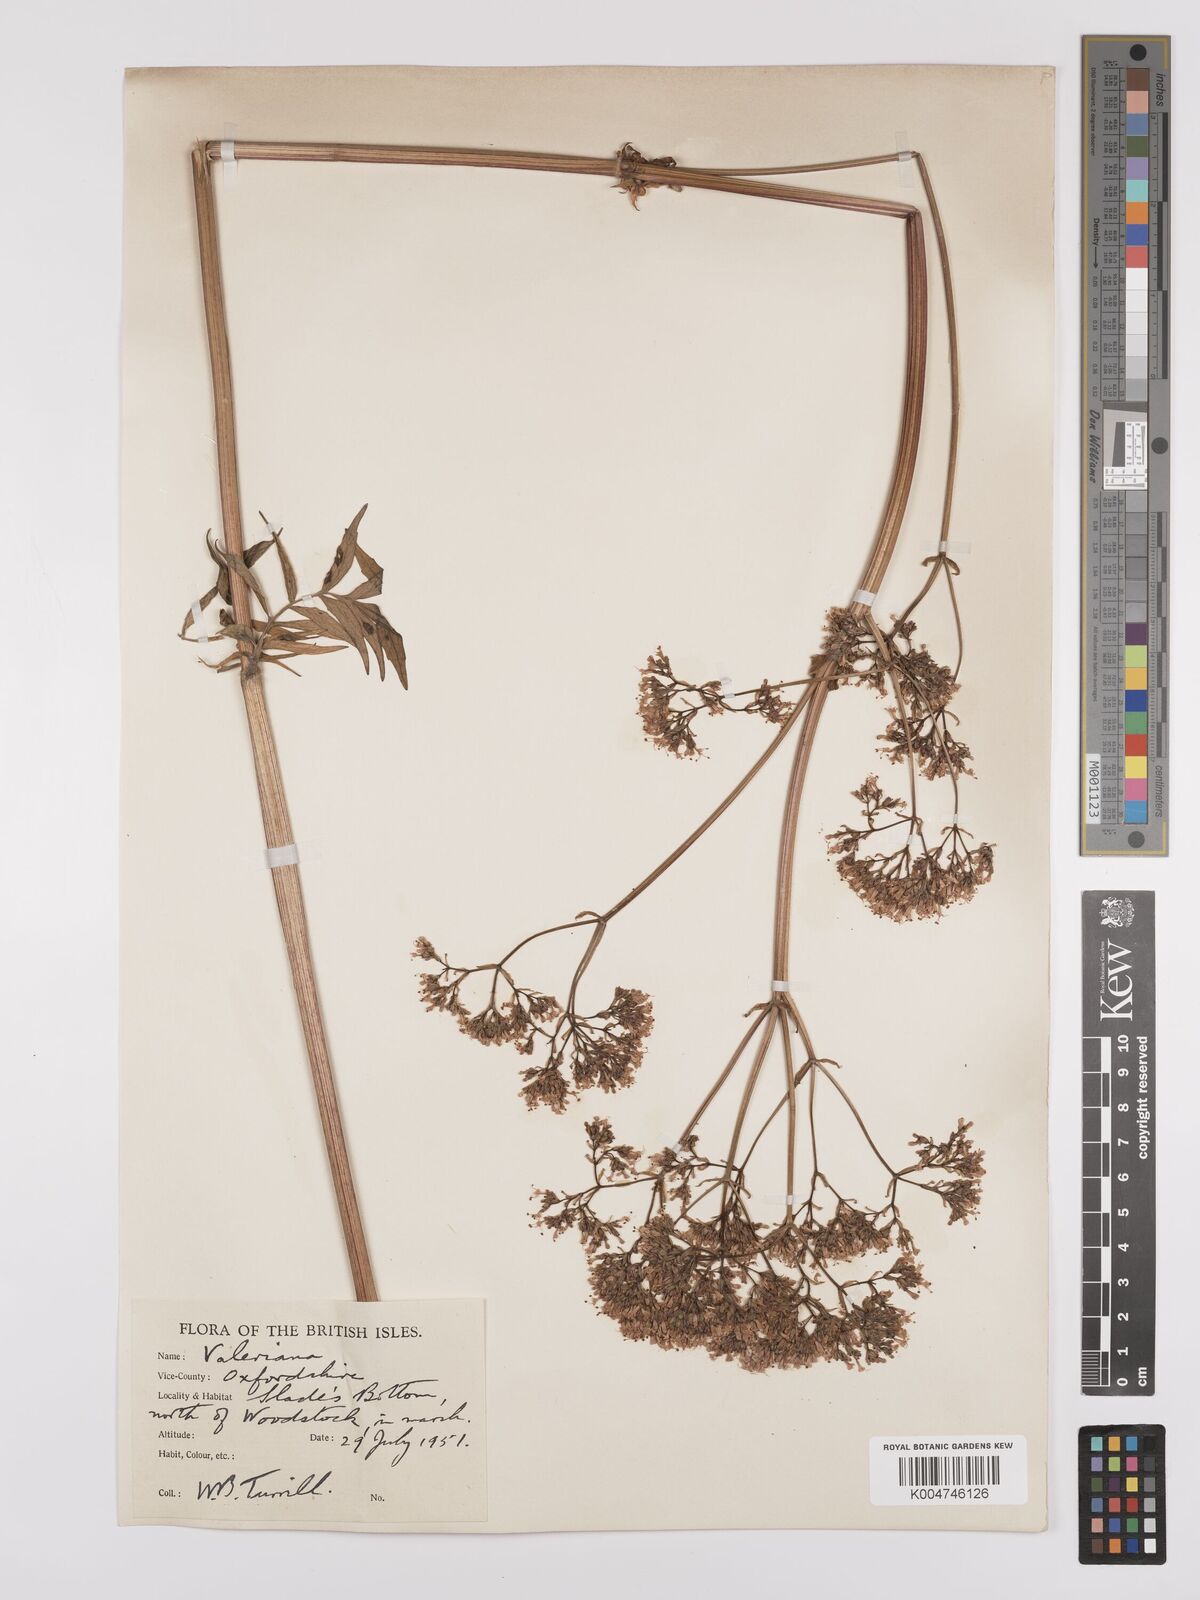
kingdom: Plantae
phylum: Tracheophyta
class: Magnoliopsida
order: Dipsacales
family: Caprifoliaceae
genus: Valeriana
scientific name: Valeriana excelsa
